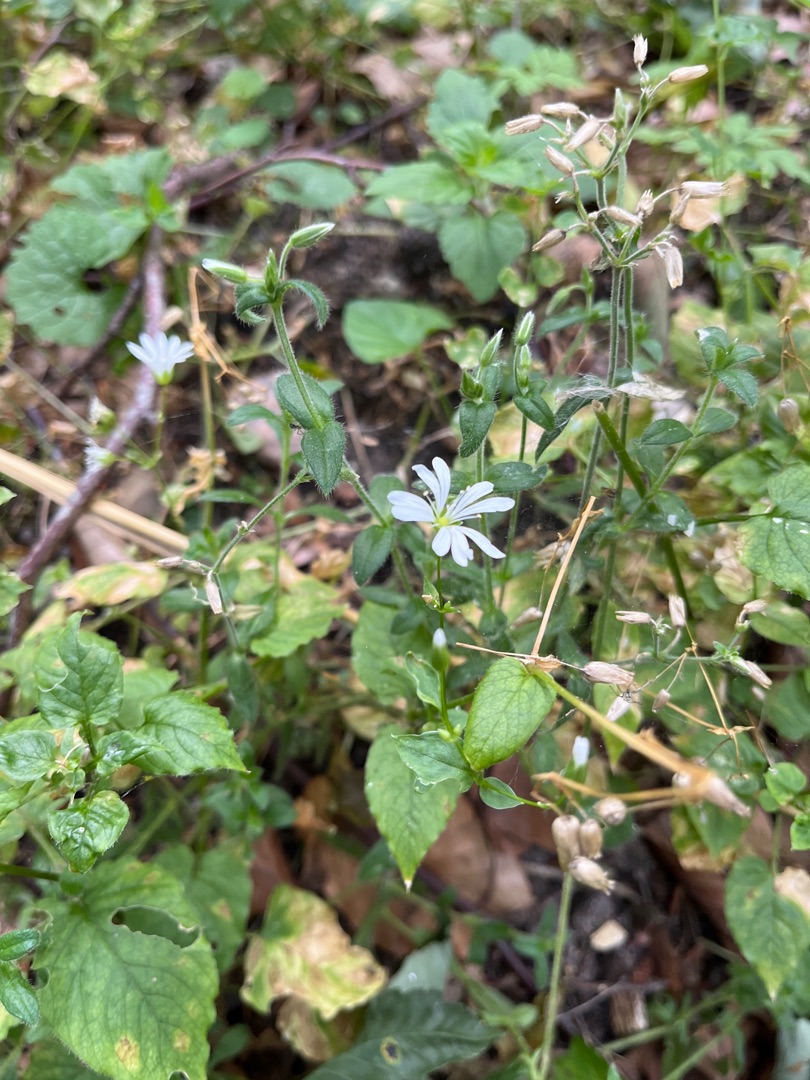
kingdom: Plantae
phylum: Tracheophyta
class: Magnoliopsida
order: Caryophyllales
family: Caryophyllaceae
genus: Stellaria
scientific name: Stellaria nemorum
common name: Lund-fladstjerne
